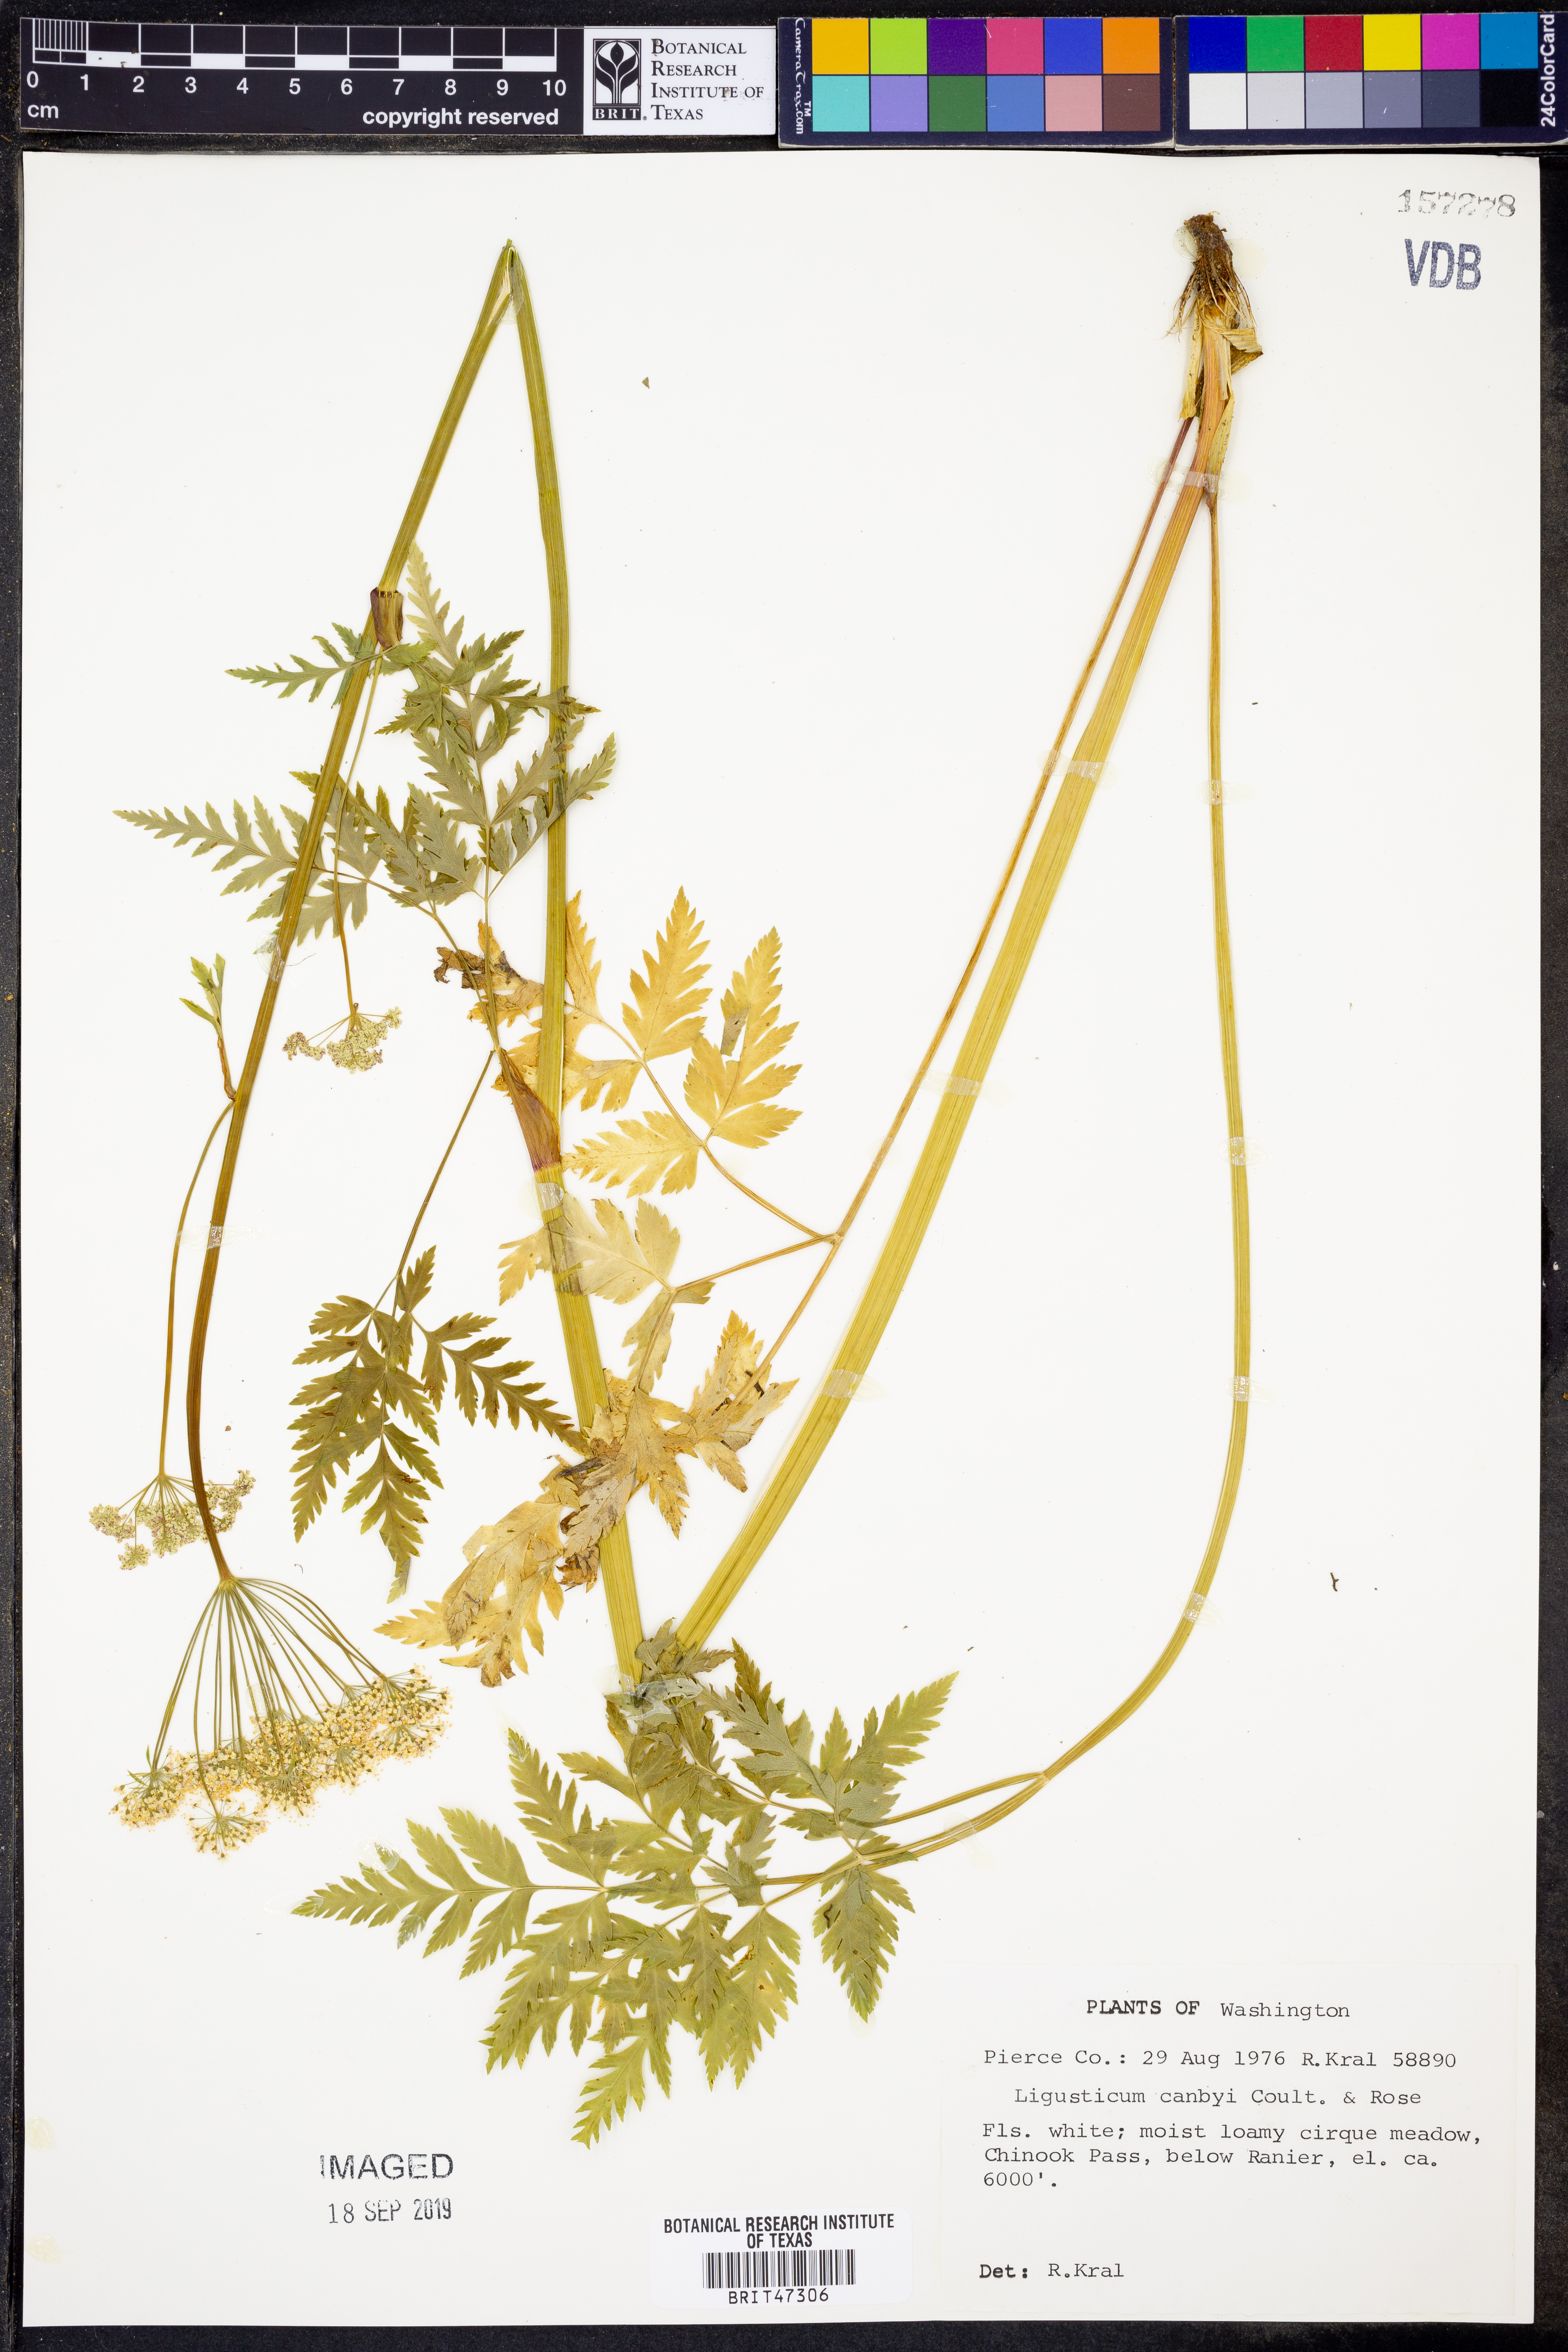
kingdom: Plantae
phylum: Tracheophyta
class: Magnoliopsida
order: Apiales
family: Apiaceae
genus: Ligusticum
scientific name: Ligusticum canbyi
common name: Canby’s licorice-root
